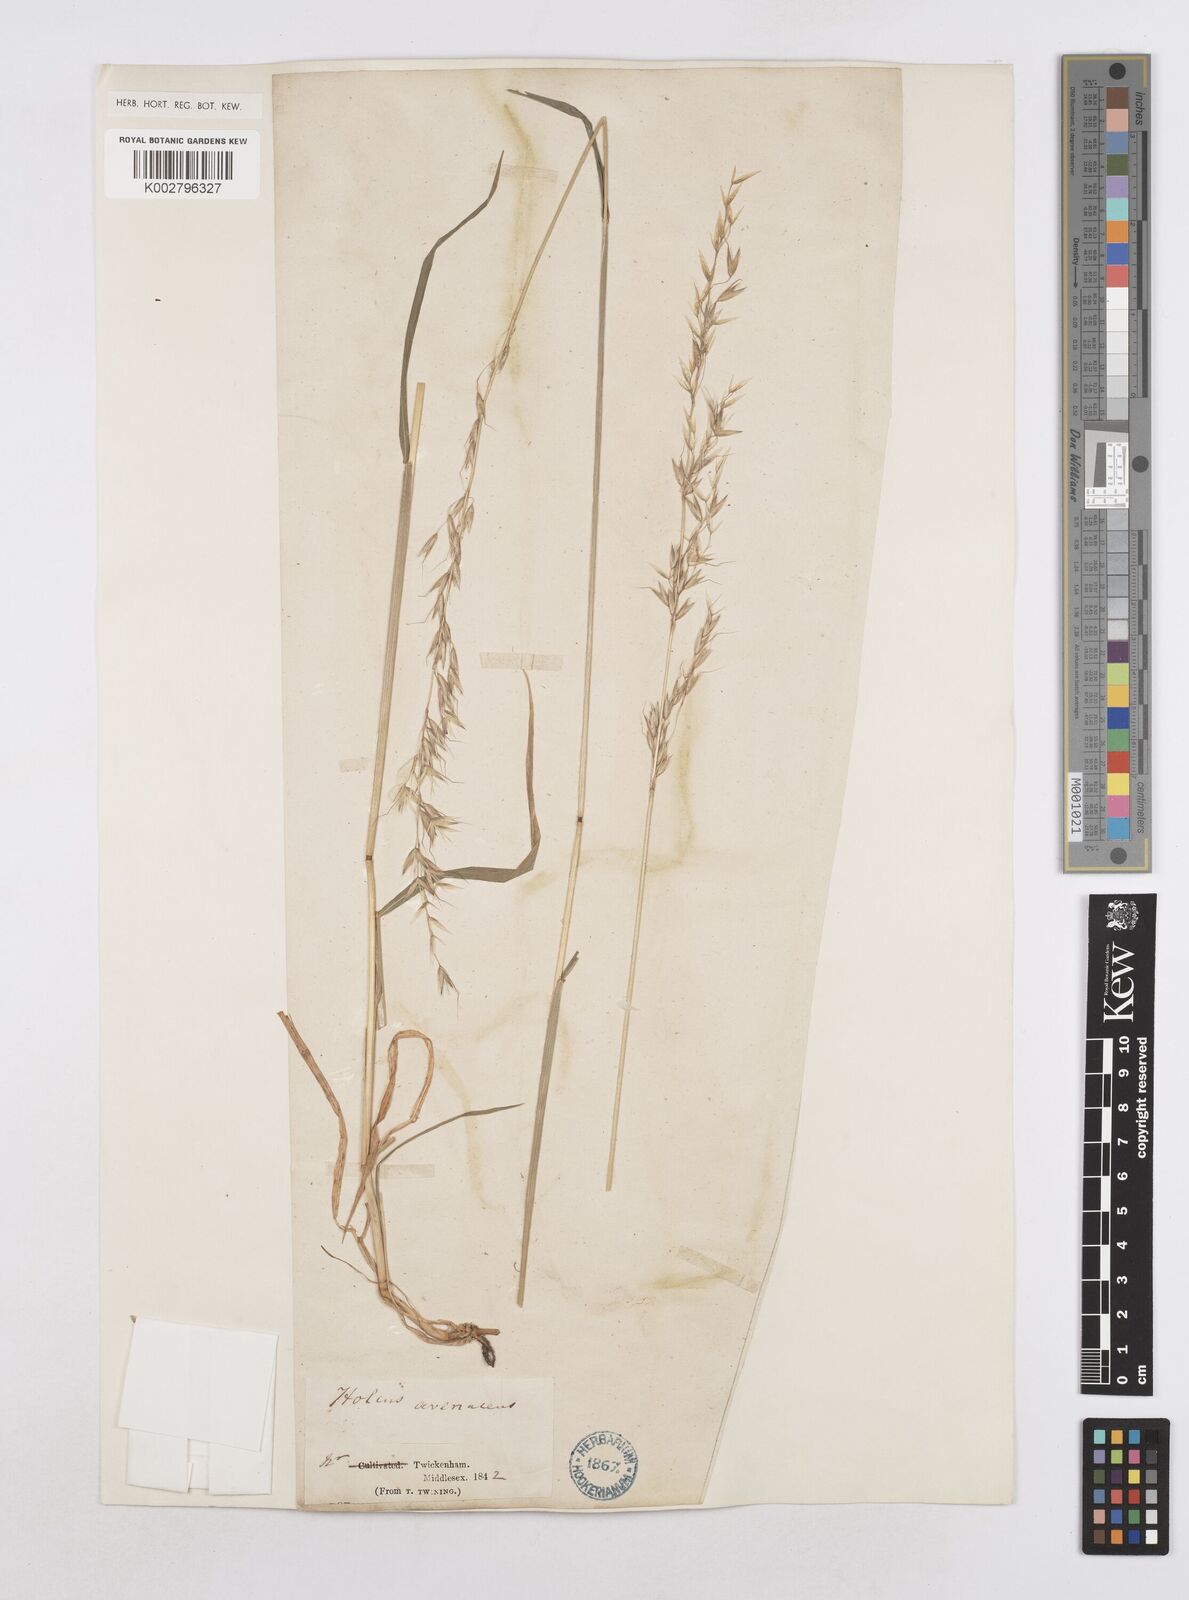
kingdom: Plantae
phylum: Tracheophyta
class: Liliopsida
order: Poales
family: Poaceae
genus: Arrhenatherum
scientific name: Arrhenatherum elatius
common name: Tall oatgrass
